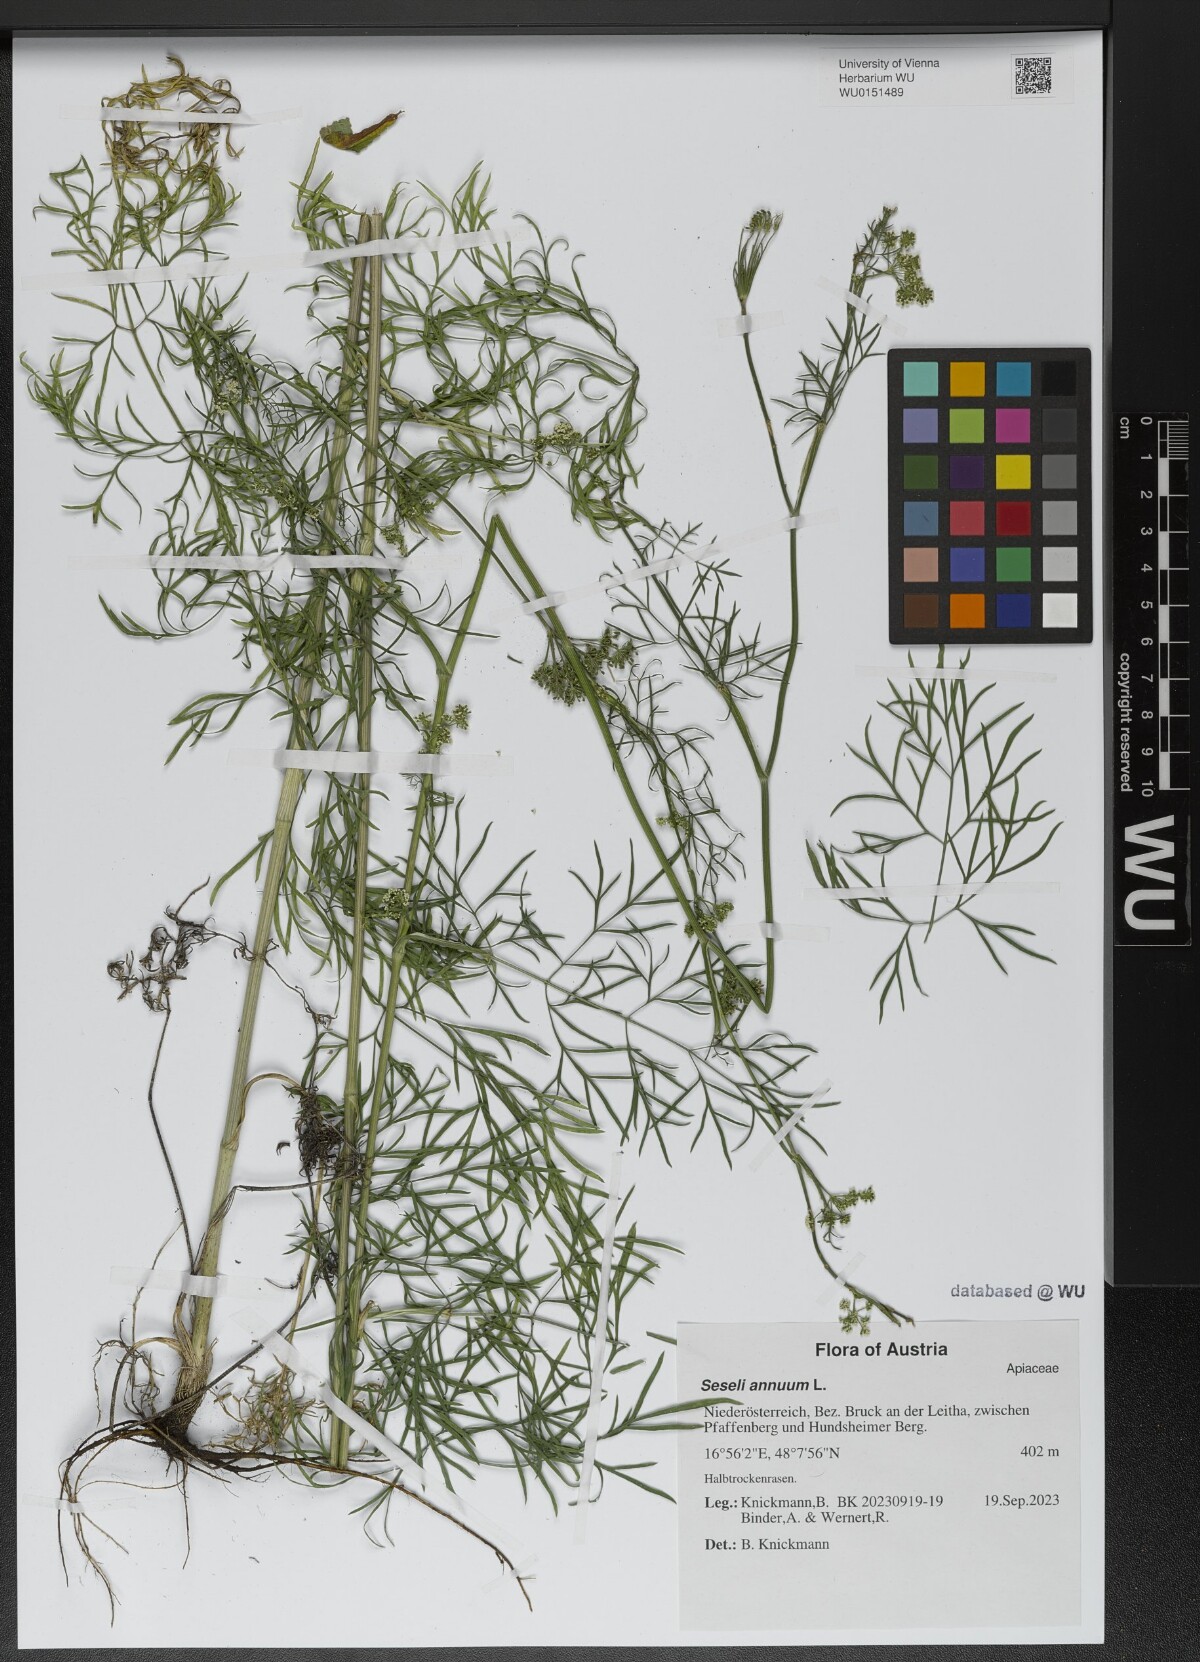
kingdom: Plantae
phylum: Tracheophyta
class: Magnoliopsida
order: Apiales
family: Apiaceae
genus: Seseli
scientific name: Seseli annuum
